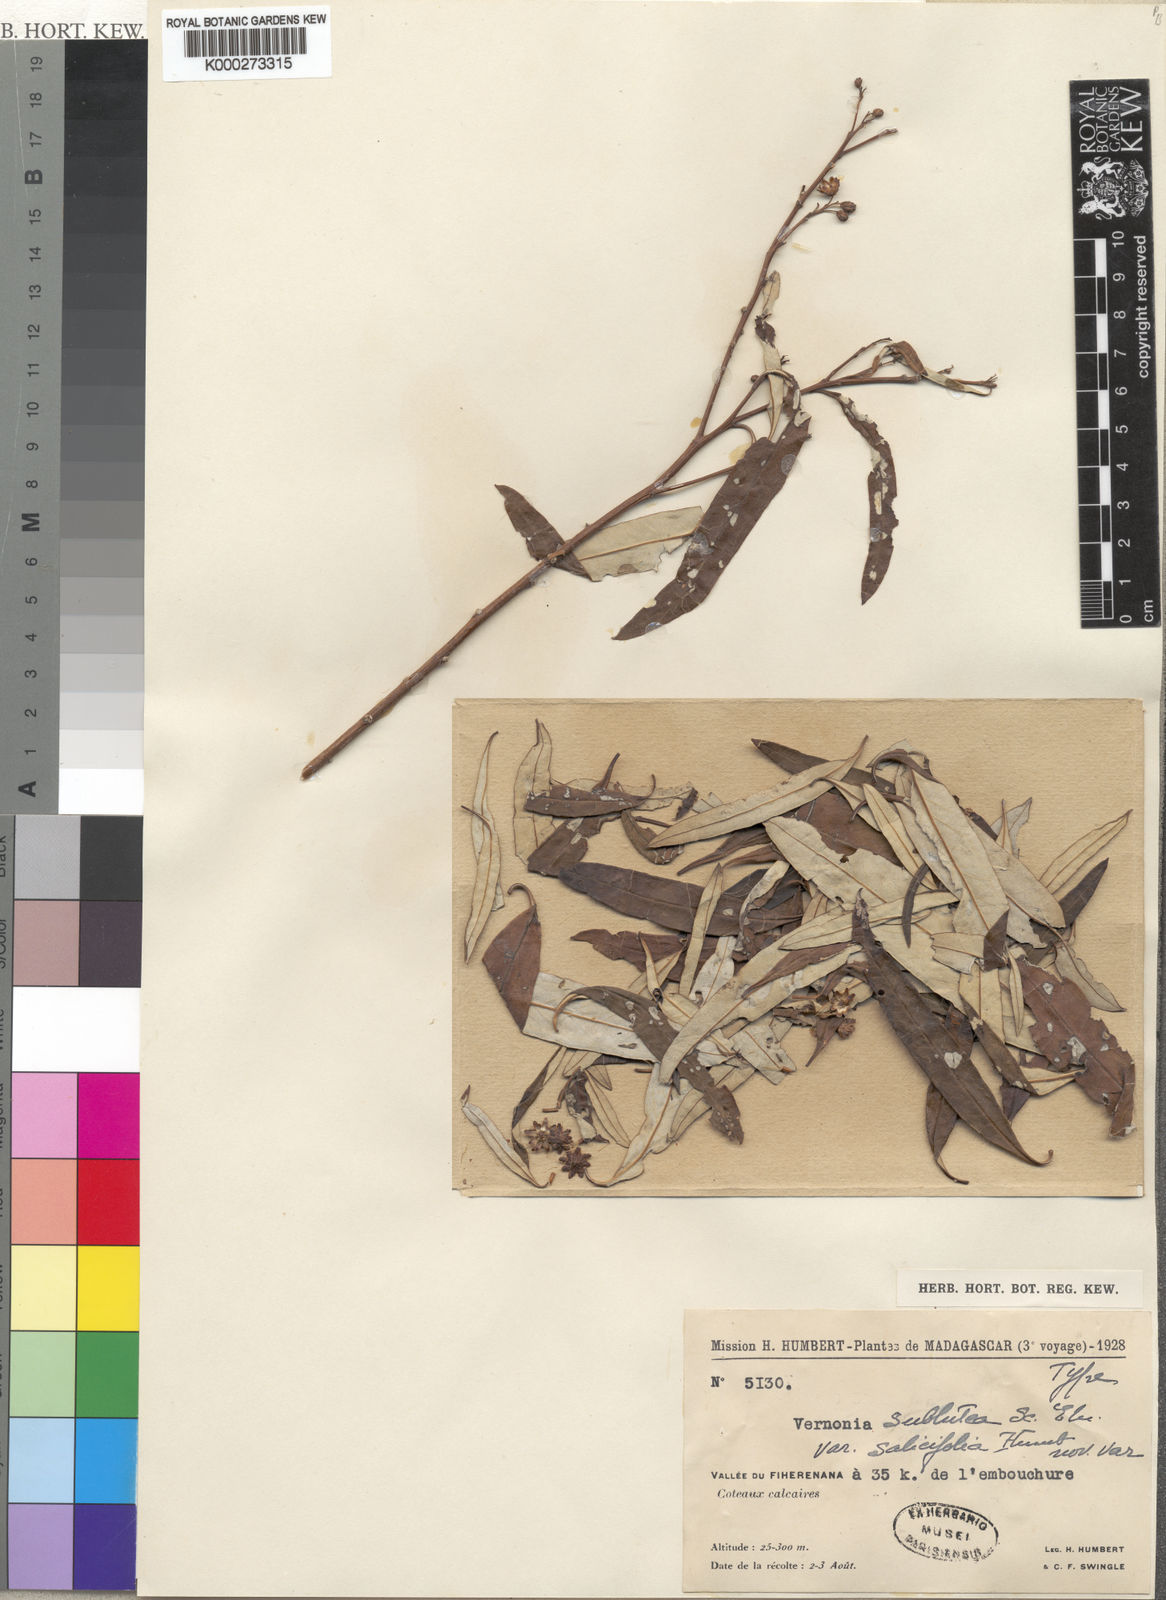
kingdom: Plantae
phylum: Tracheophyta
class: Magnoliopsida
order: Asterales
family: Asteraceae
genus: Distephanus
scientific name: Distephanus subluteus
